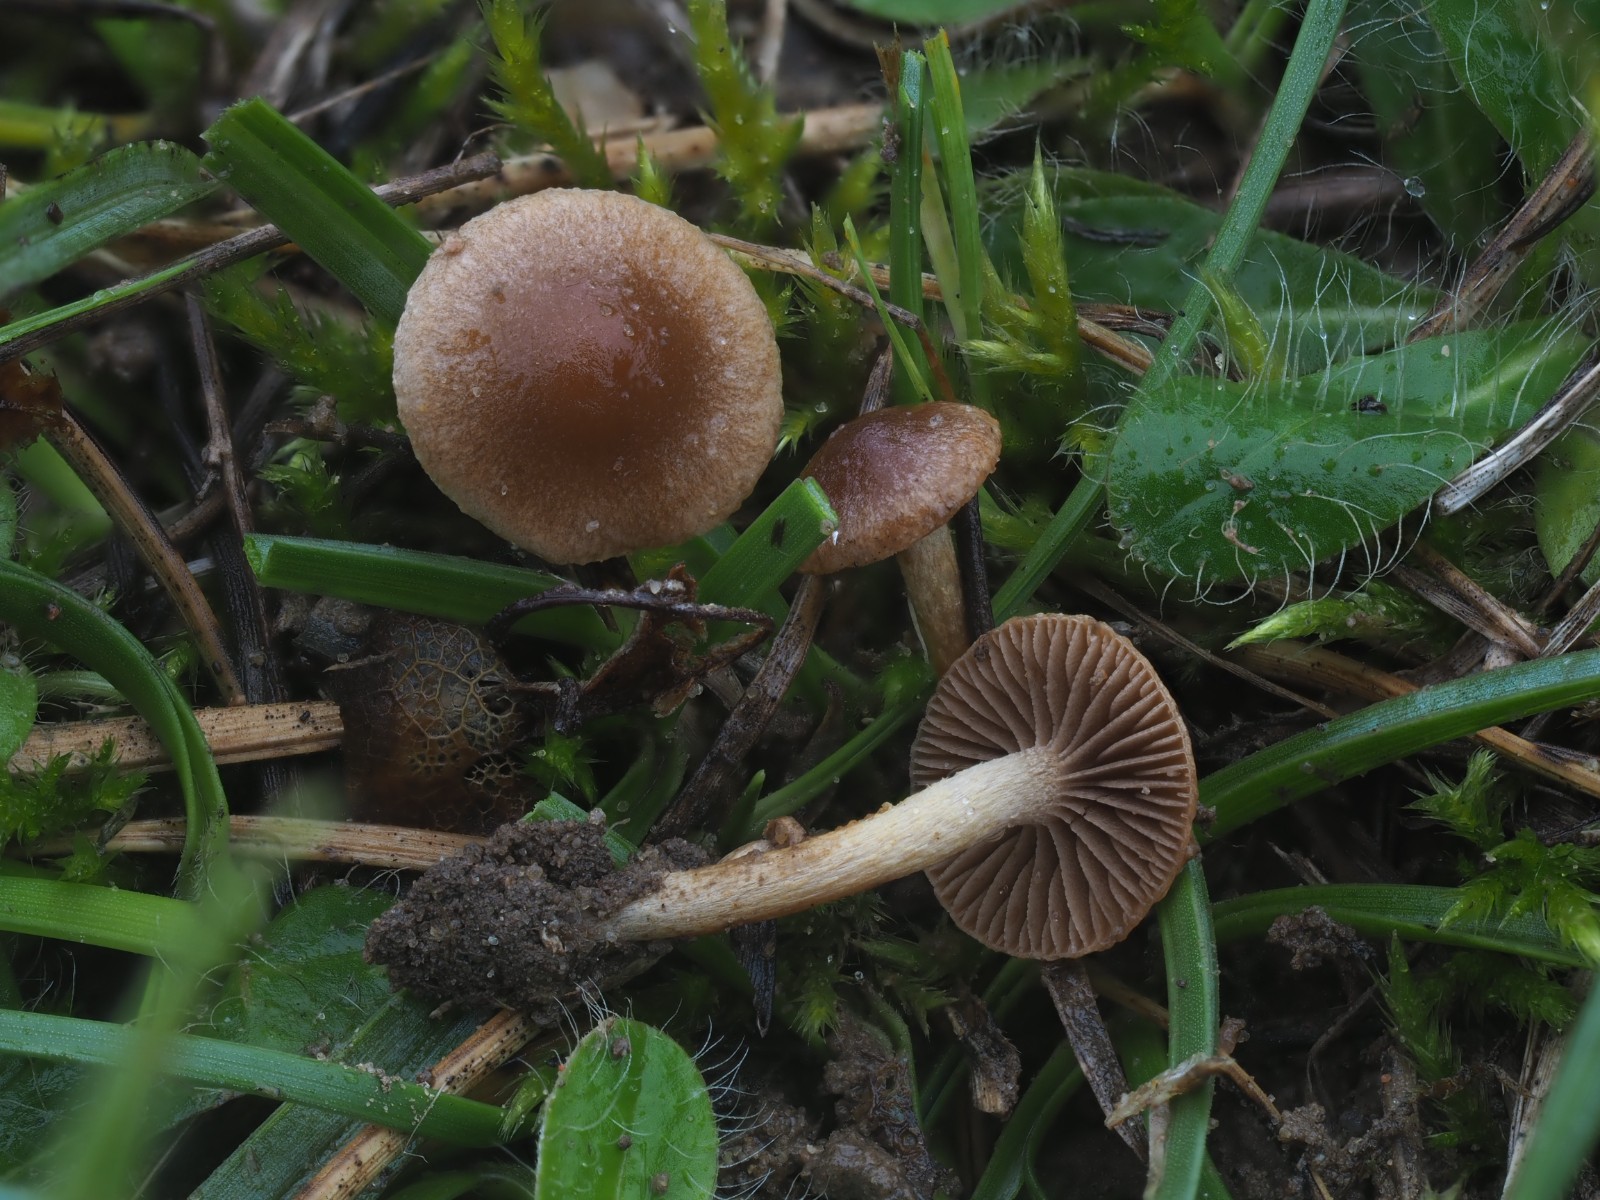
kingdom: Fungi
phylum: Basidiomycota
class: Agaricomycetes
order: Agaricales
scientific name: Agaricales
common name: champignonordenen
